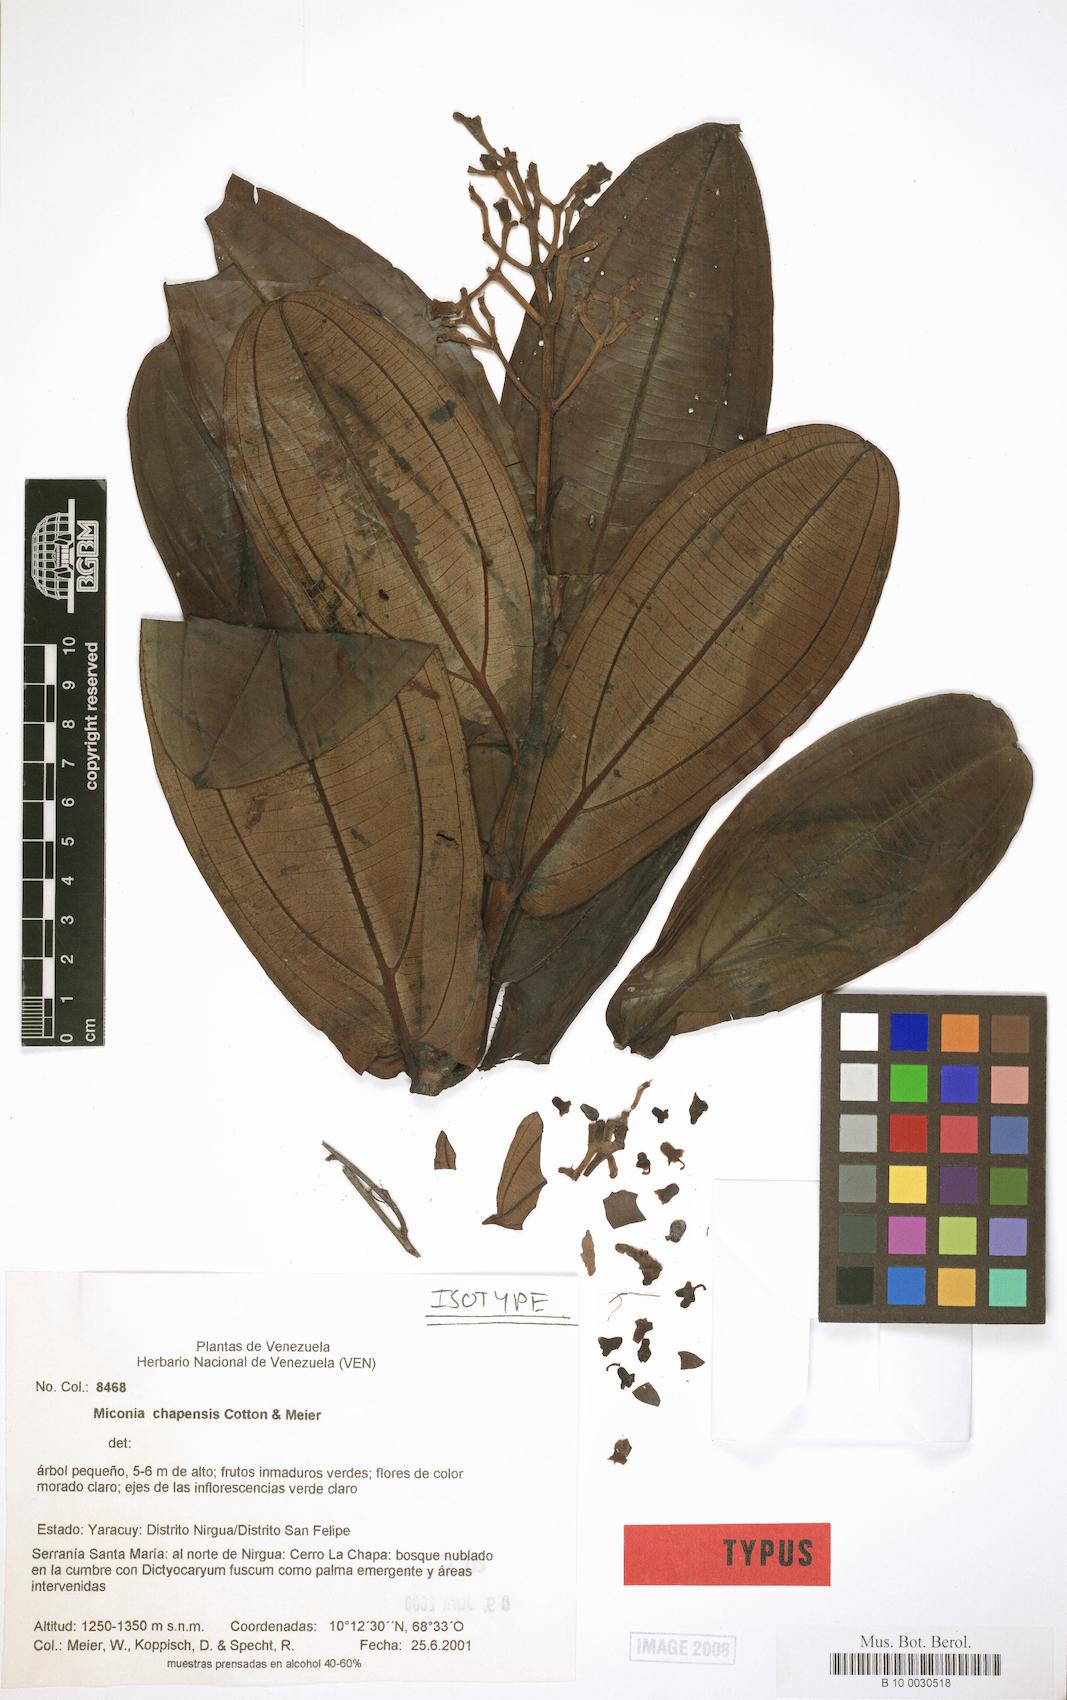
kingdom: Plantae
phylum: Tracheophyta
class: Magnoliopsida
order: Myrtales
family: Melastomataceae
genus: Miconia
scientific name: Miconia chapensis
